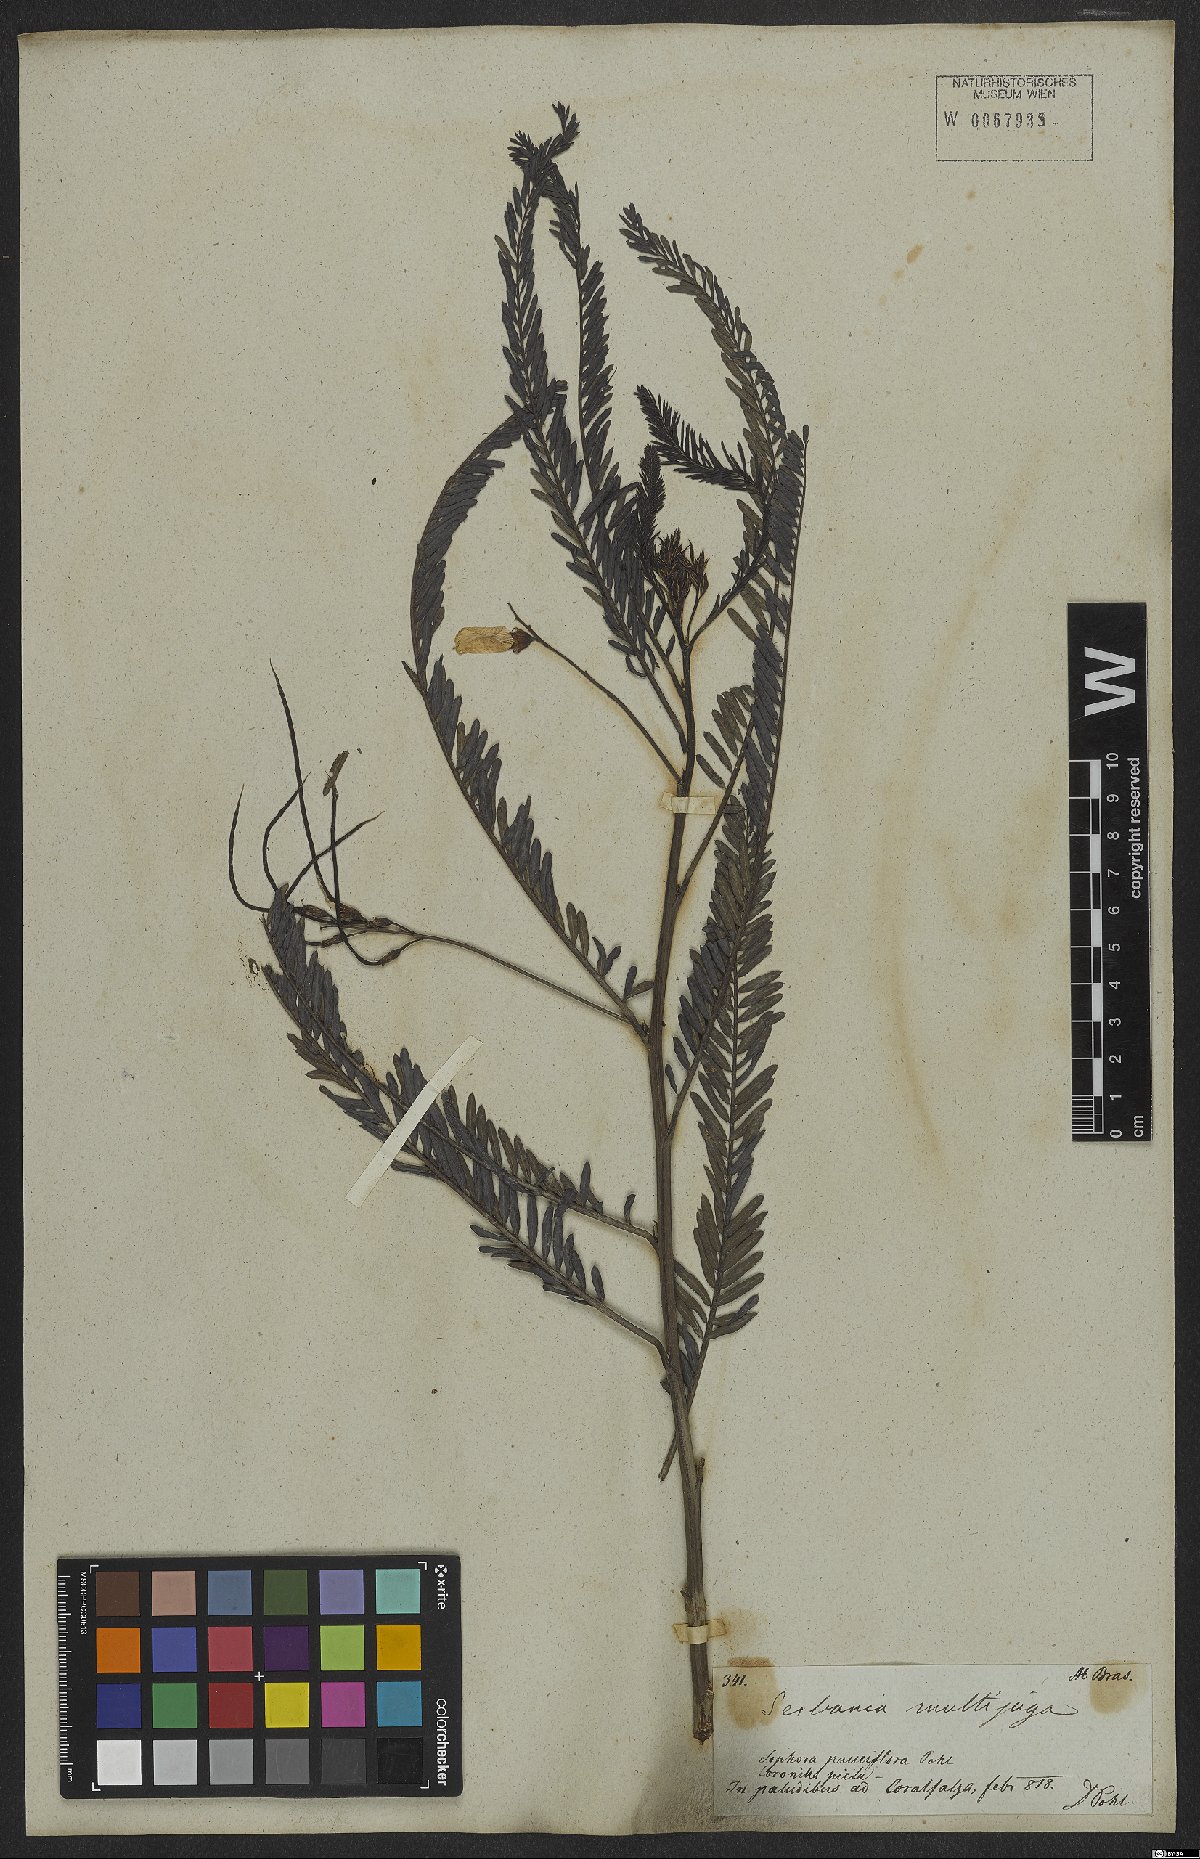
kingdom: Plantae
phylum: Tracheophyta
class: Magnoliopsida
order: Fabales
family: Fabaceae
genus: Sesbania
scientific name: Sesbania exasperata
